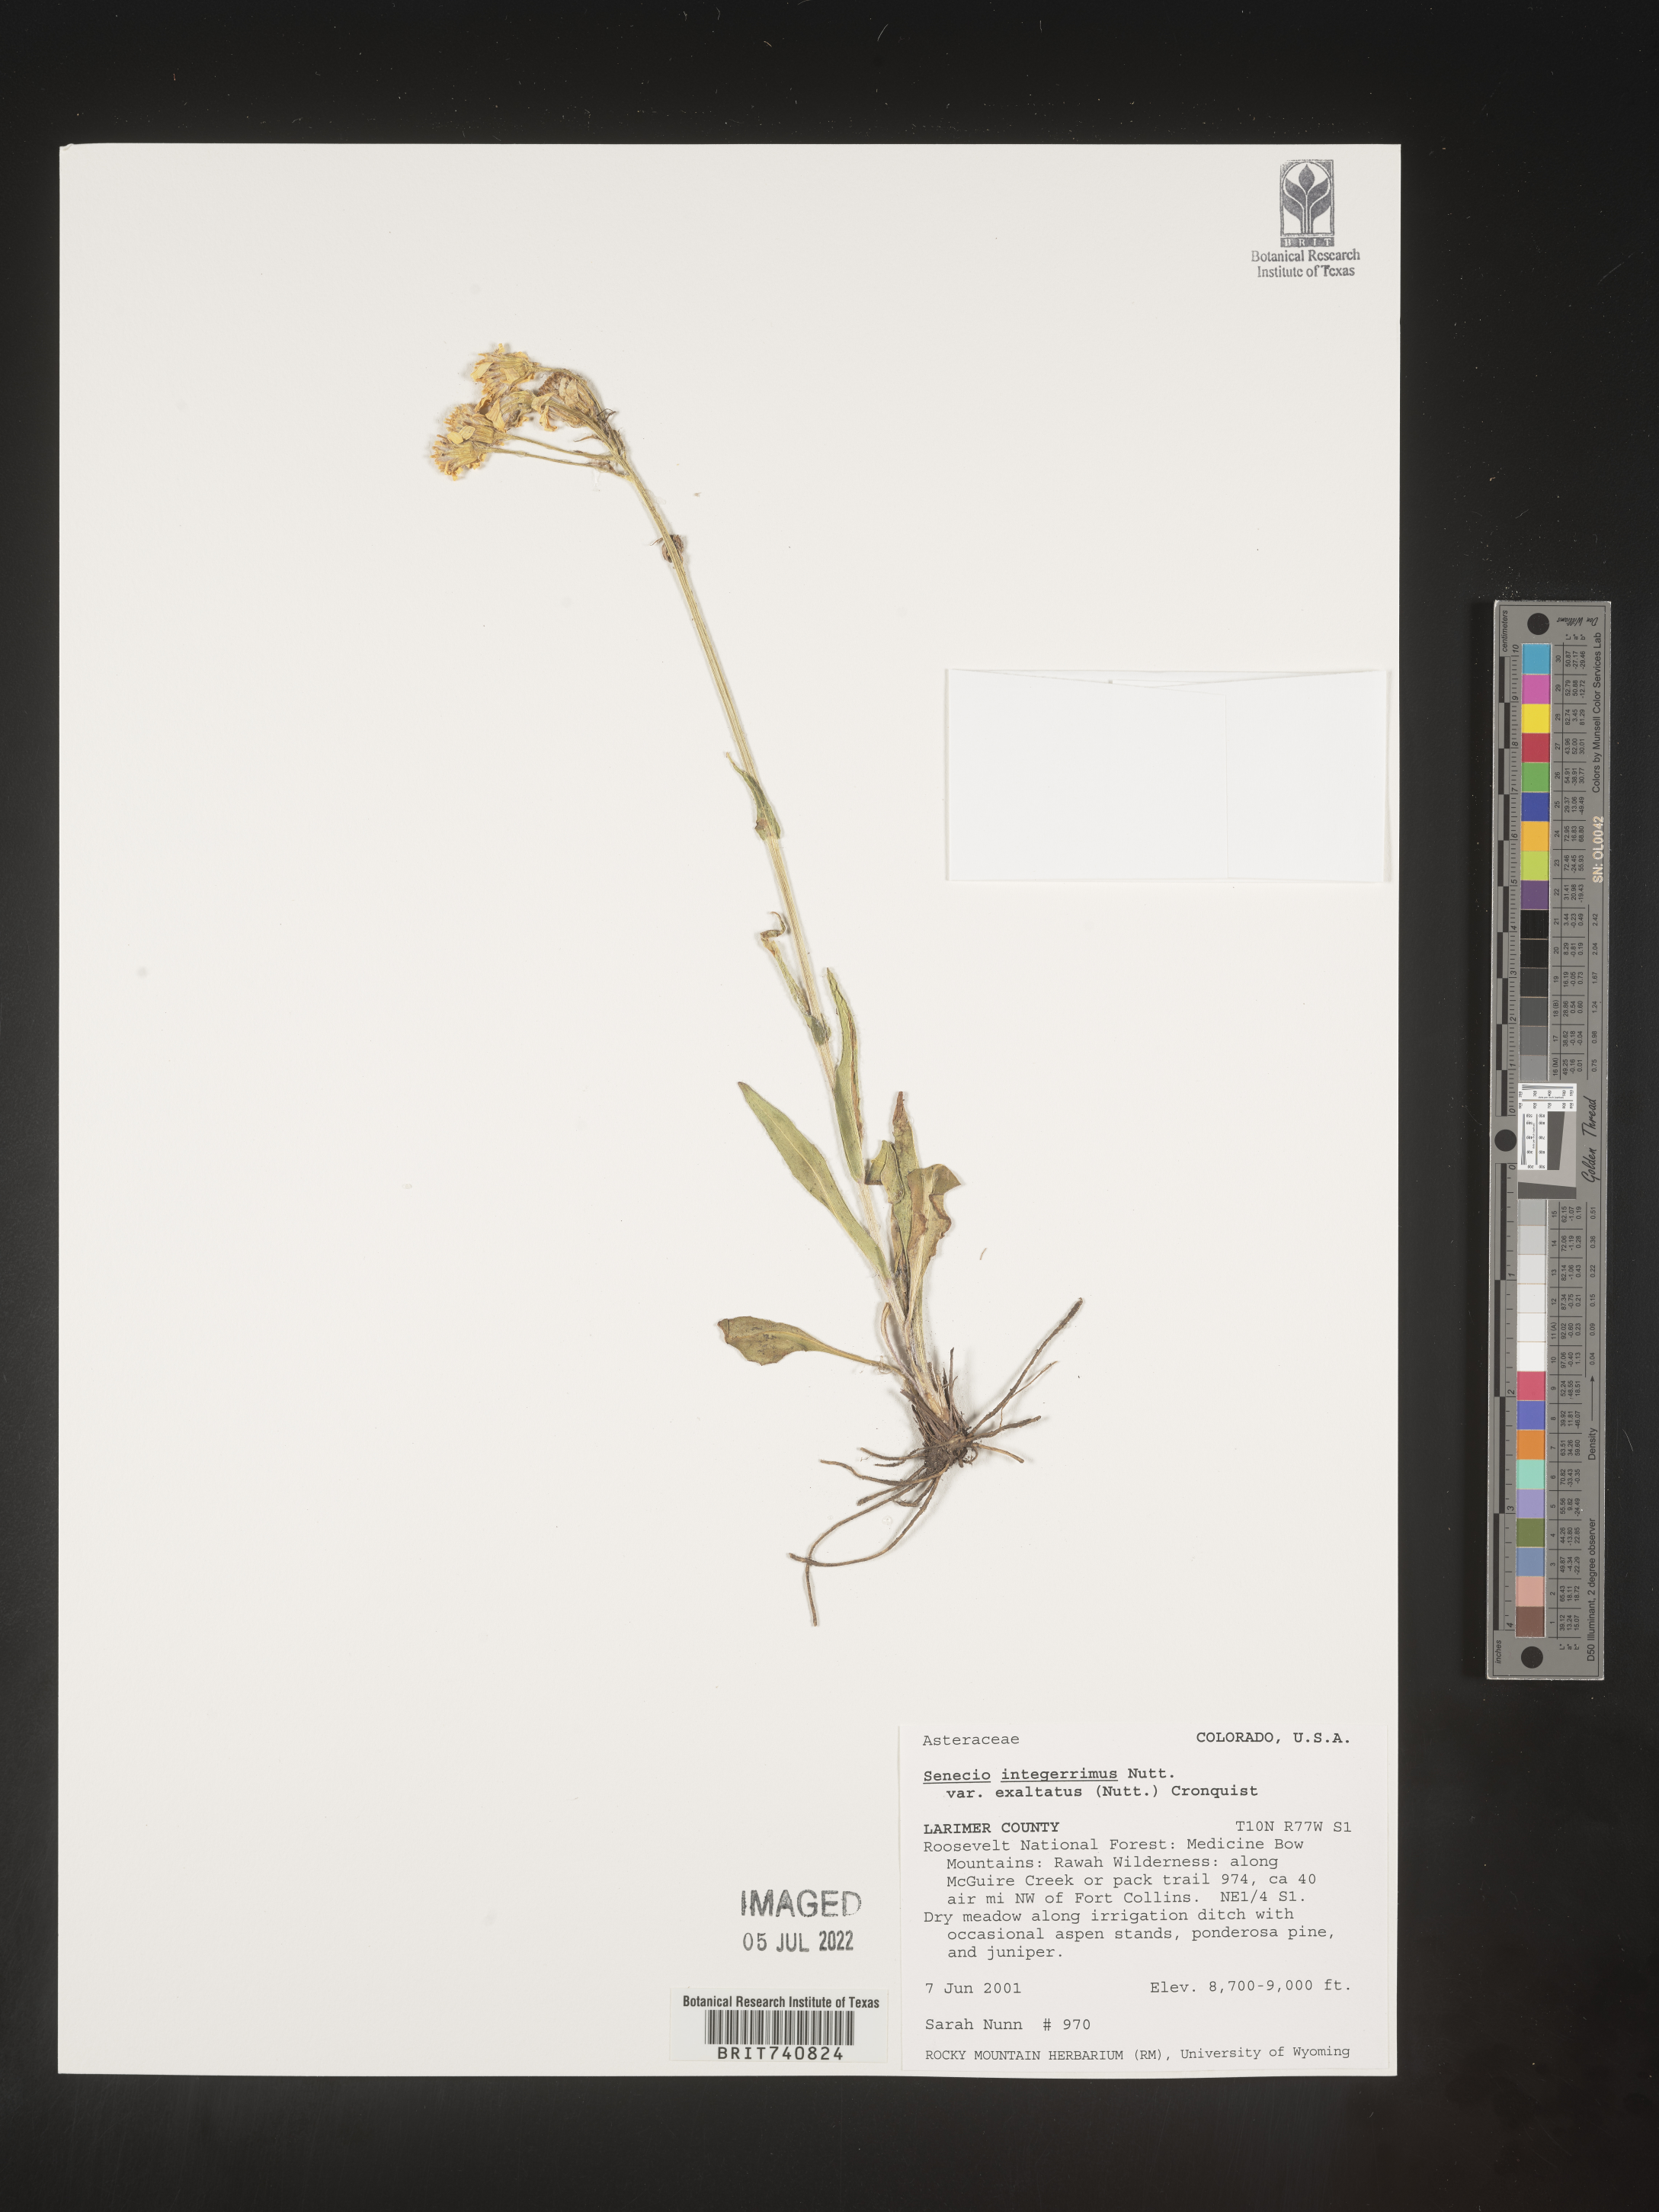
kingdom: Plantae
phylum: Tracheophyta
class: Magnoliopsida
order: Asterales
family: Asteraceae
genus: Senecio
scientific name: Senecio integerrimus
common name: Gaugeplant
